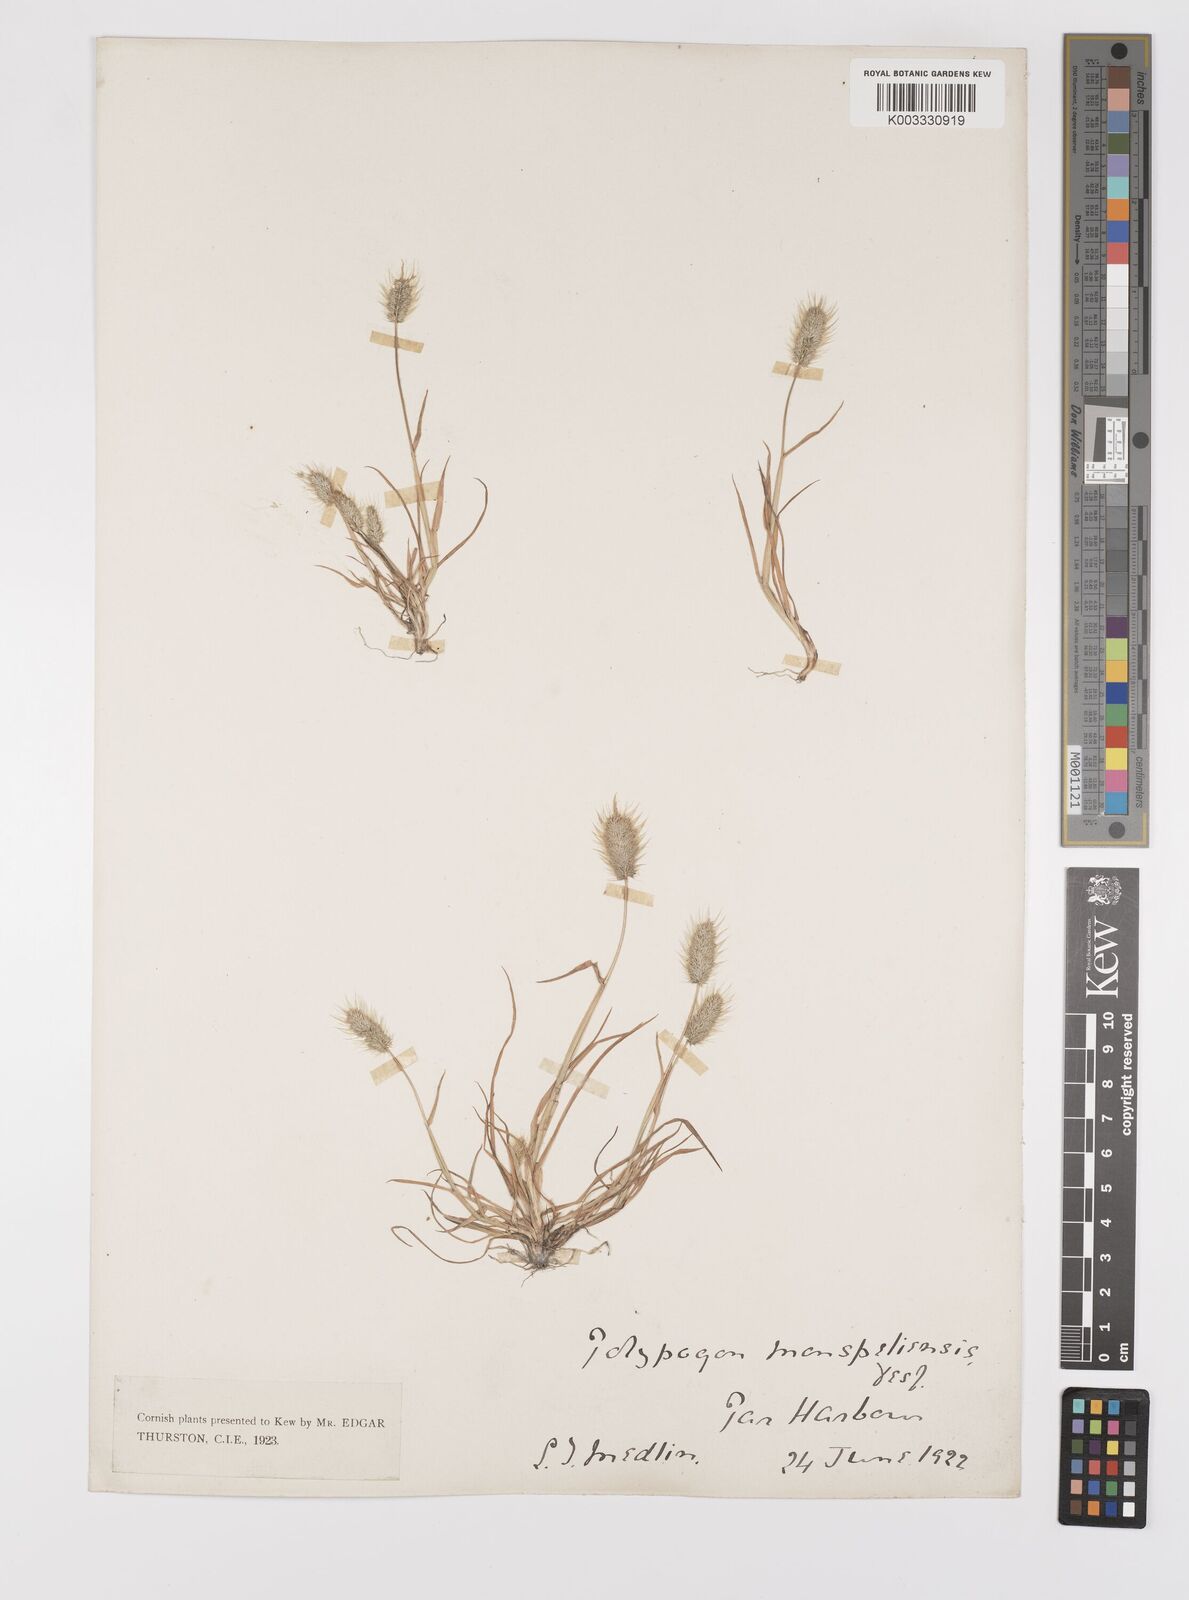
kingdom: Plantae
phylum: Tracheophyta
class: Liliopsida
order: Poales
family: Poaceae
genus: Polypogon
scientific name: Polypogon monspeliensis
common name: Annual rabbitsfoot grass
